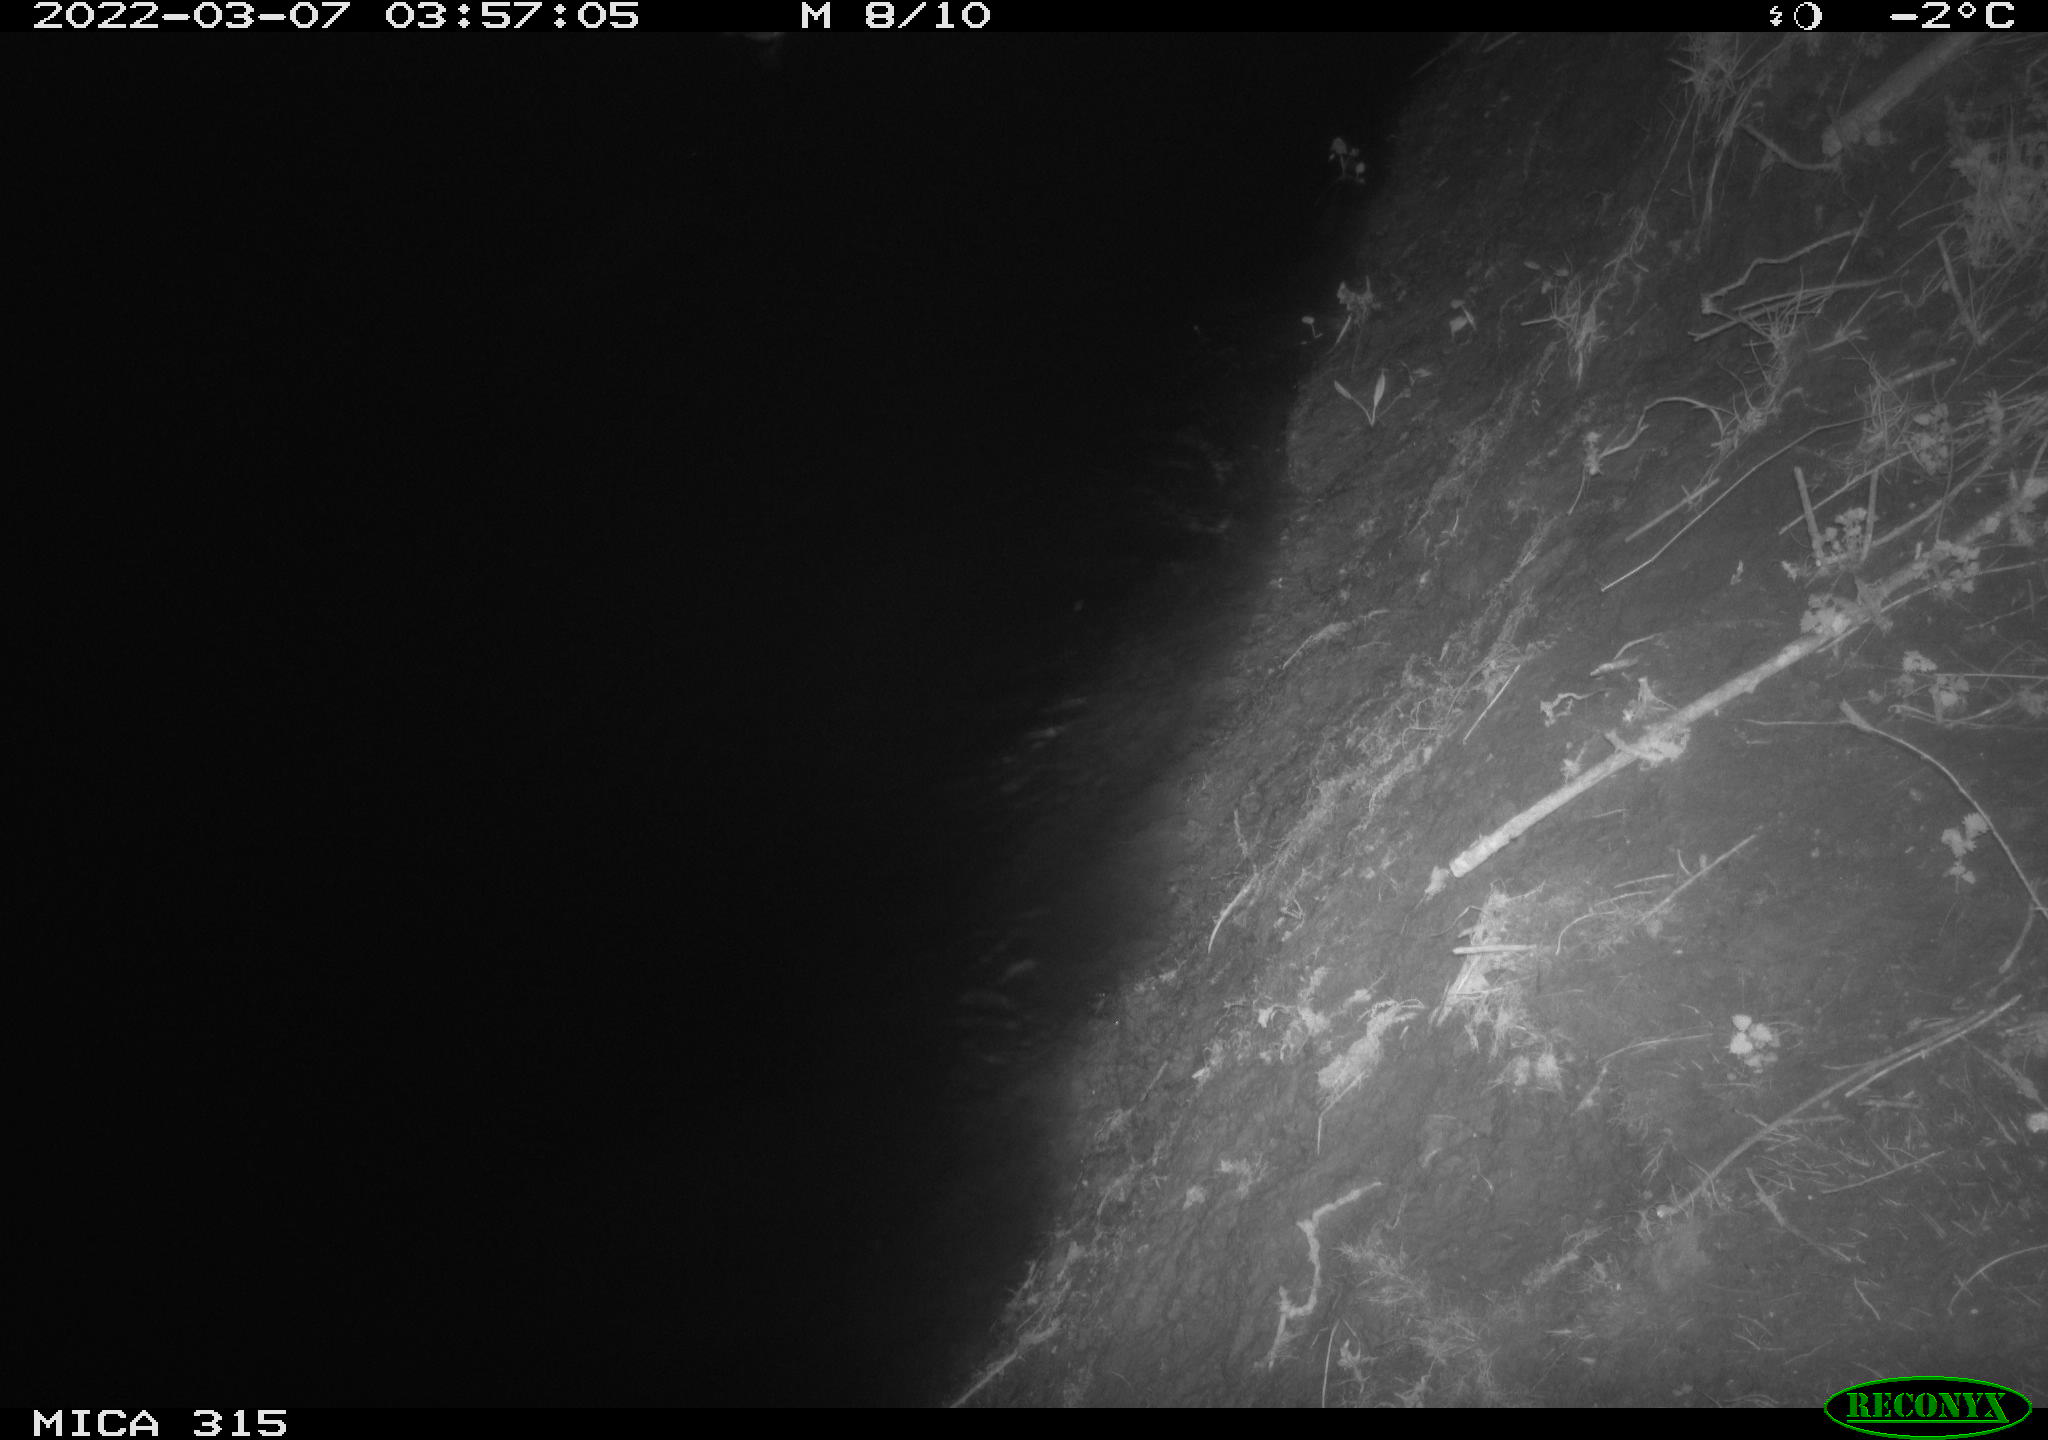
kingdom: Animalia
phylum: Chordata
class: Aves
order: Anseriformes
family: Anatidae
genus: Anas
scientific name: Anas platyrhynchos
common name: Mallard
